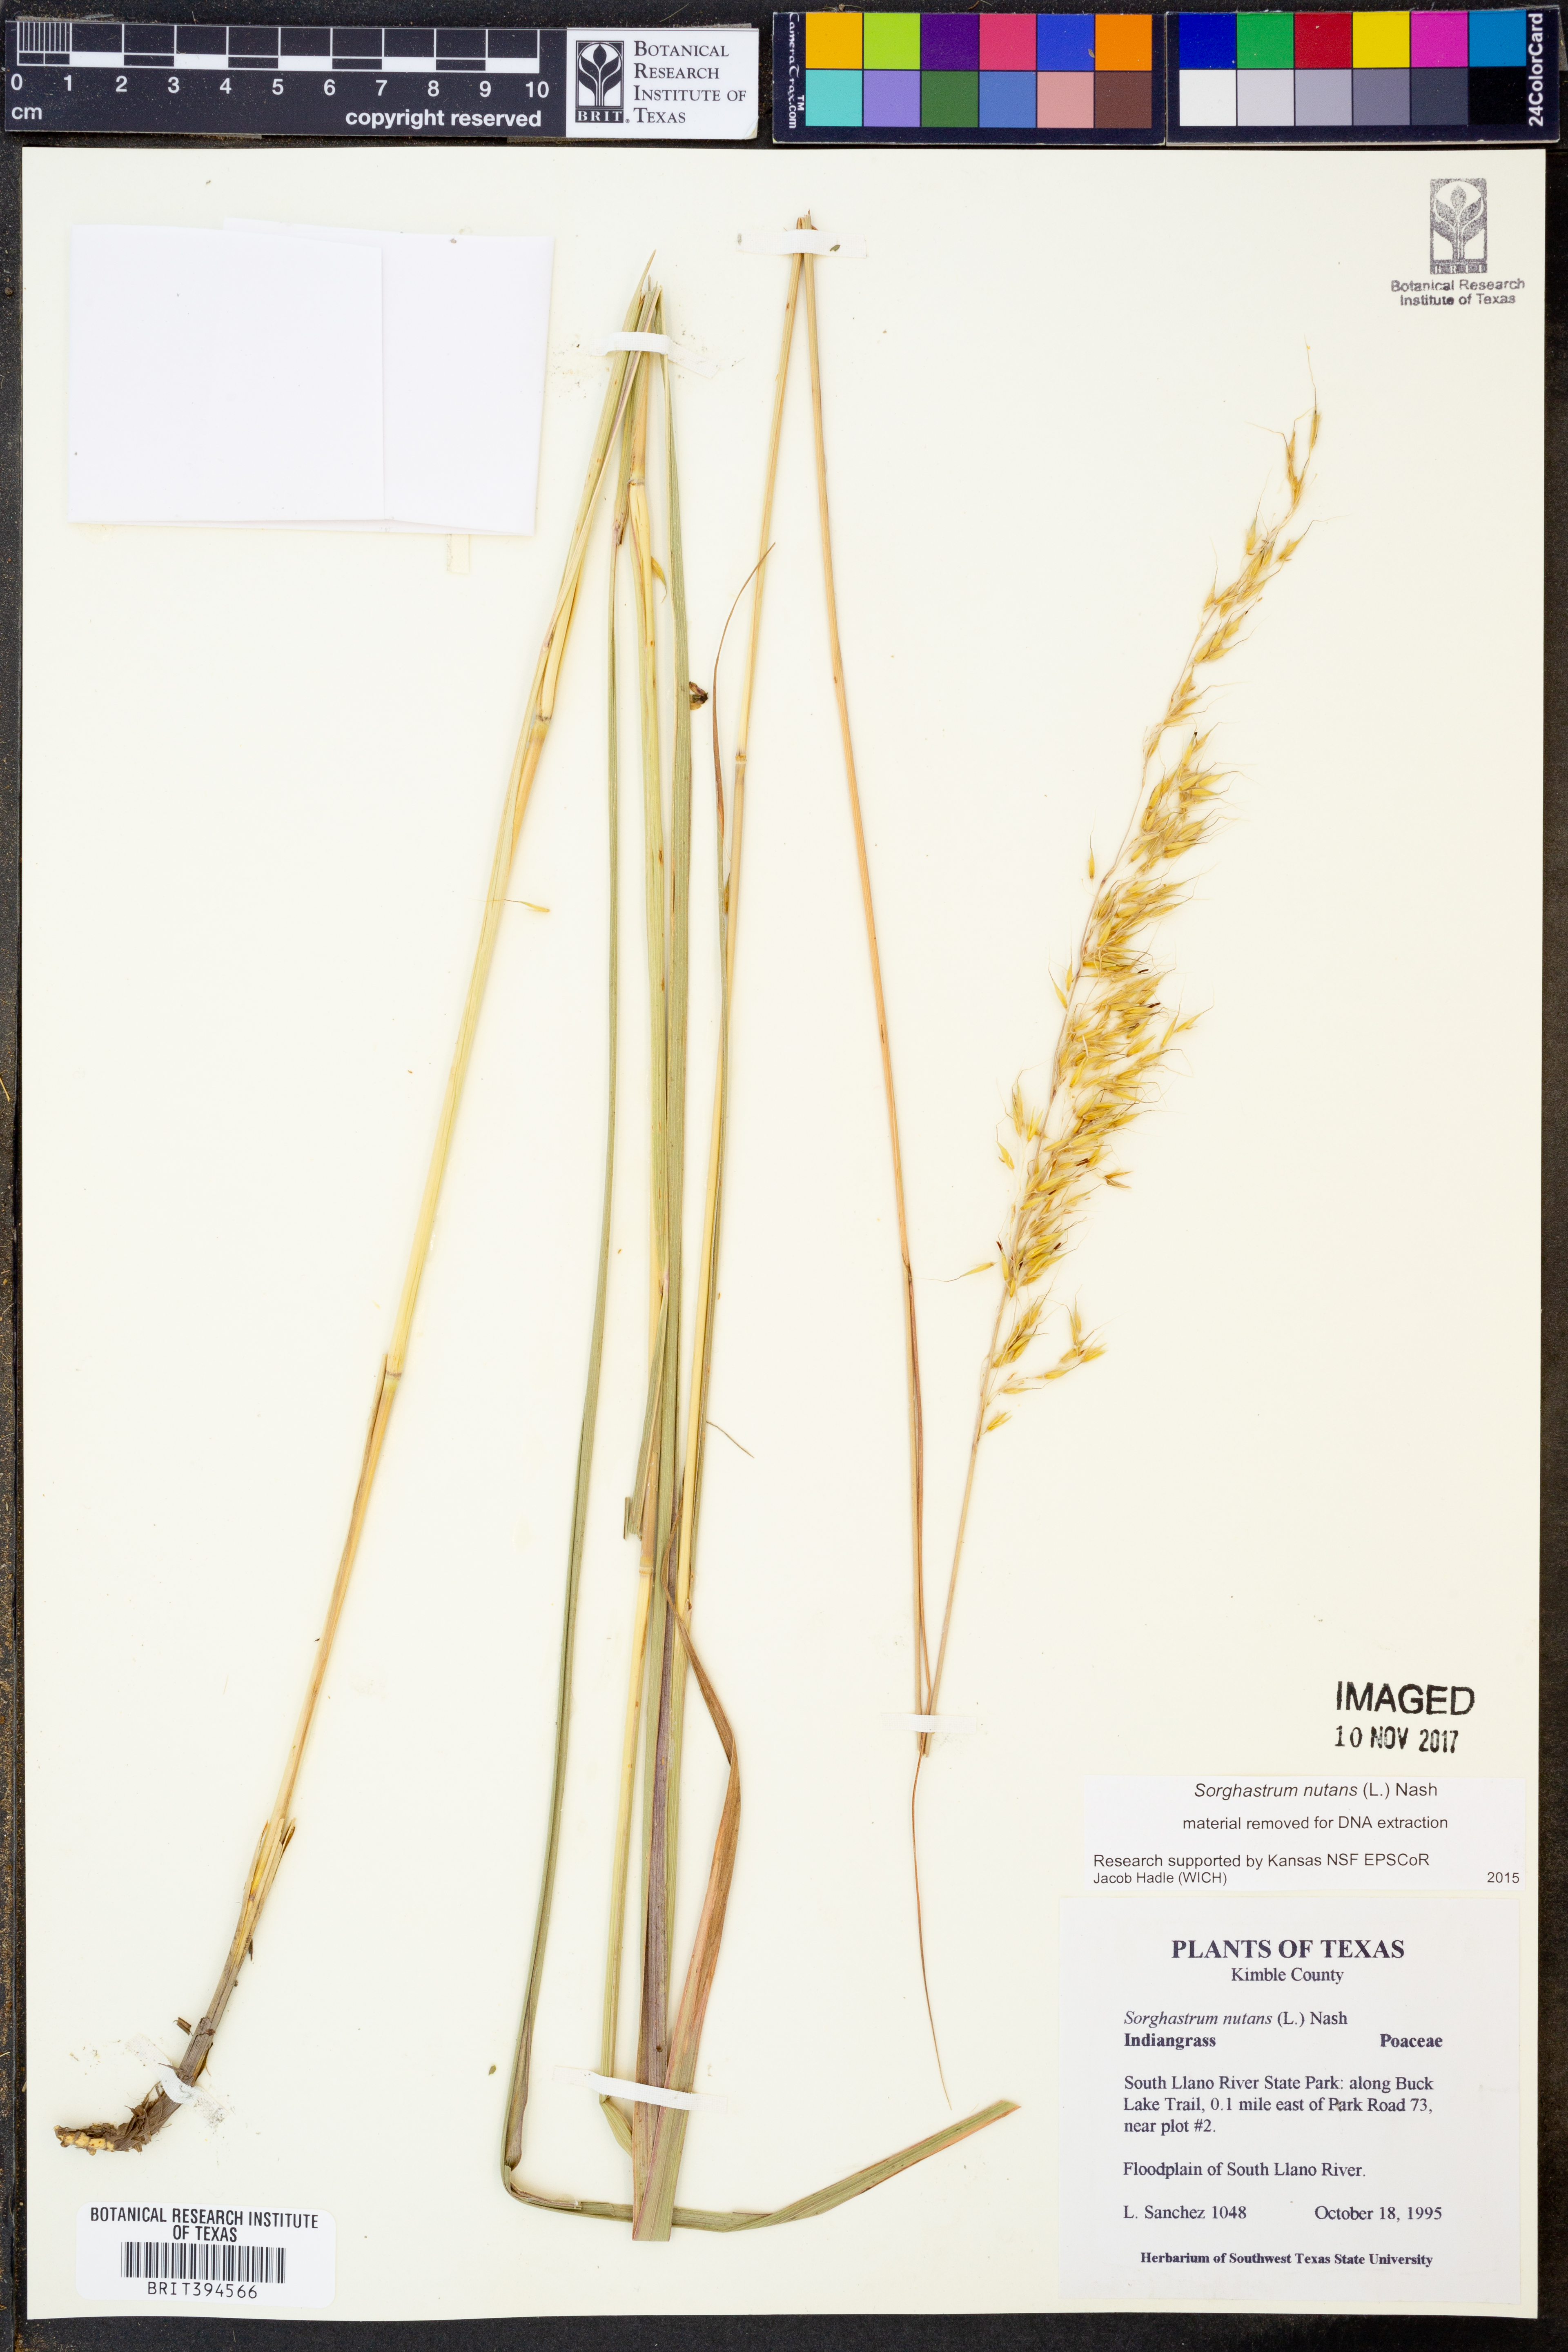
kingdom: Plantae
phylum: Tracheophyta
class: Liliopsida
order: Poales
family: Poaceae
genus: Sorghastrum
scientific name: Sorghastrum nutans
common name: Indian grass
